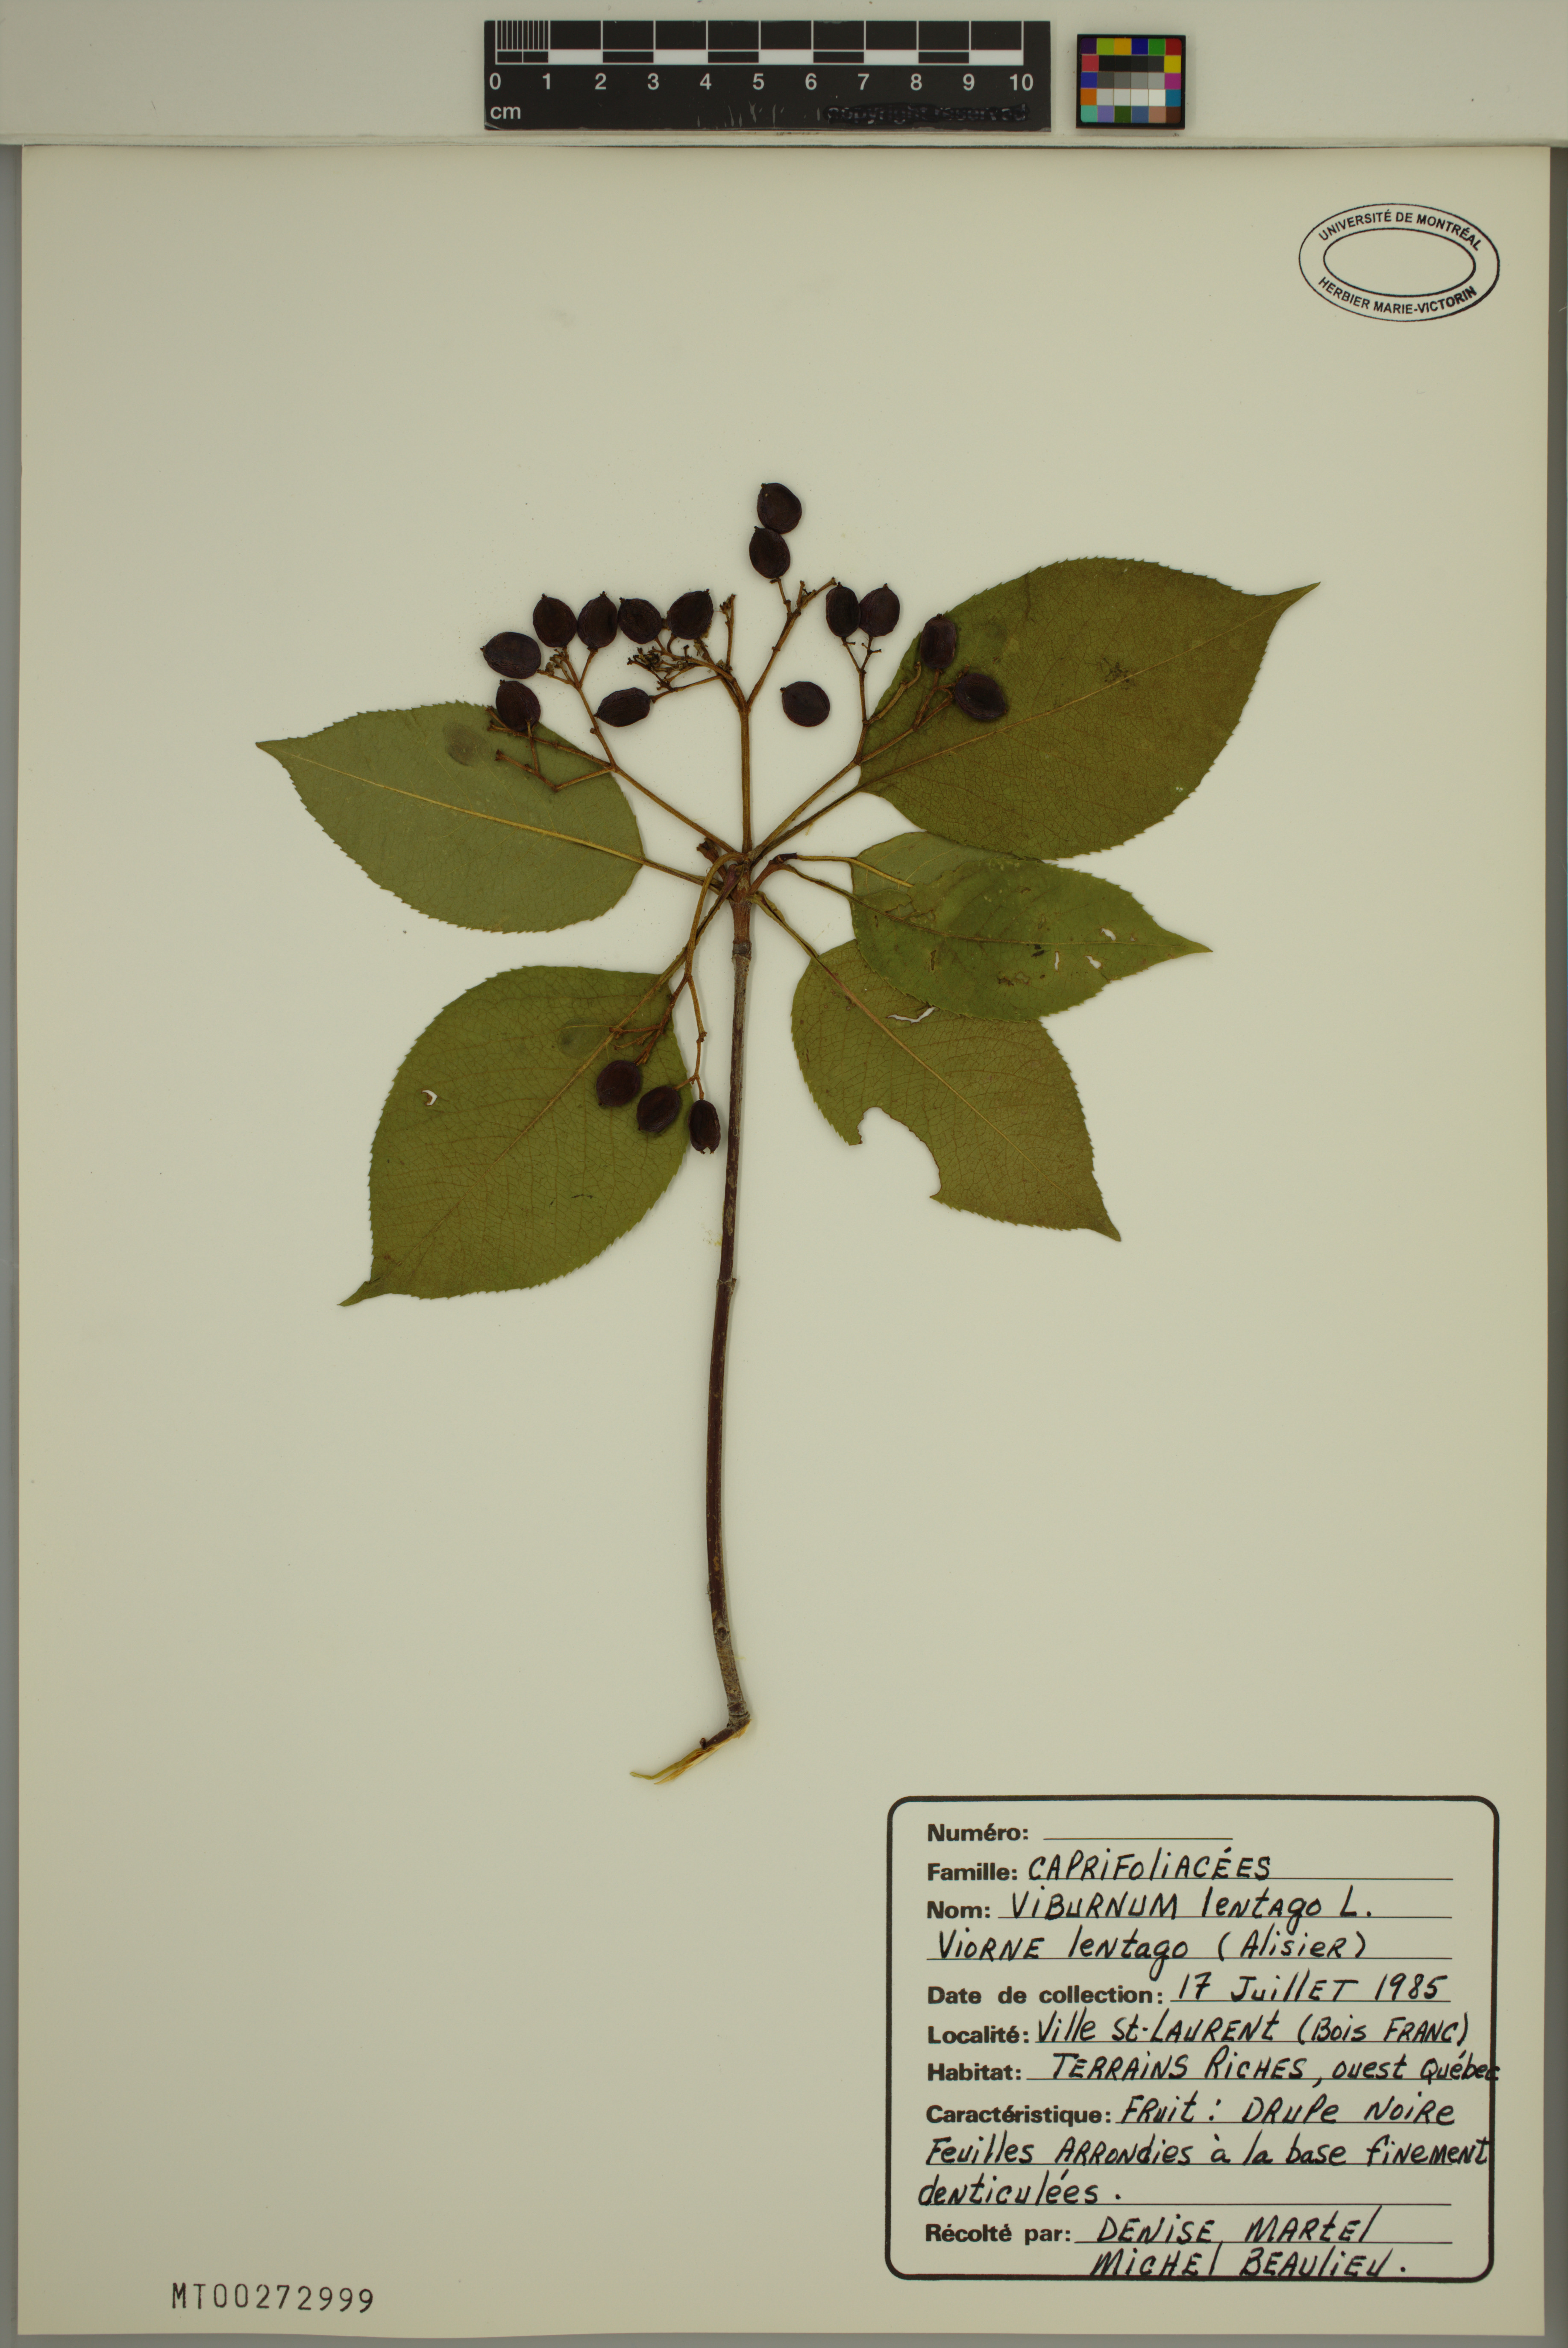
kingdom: Plantae
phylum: Tracheophyta
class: Magnoliopsida
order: Dipsacales
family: Viburnaceae
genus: Viburnum
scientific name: Viburnum lentago
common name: Black haw
